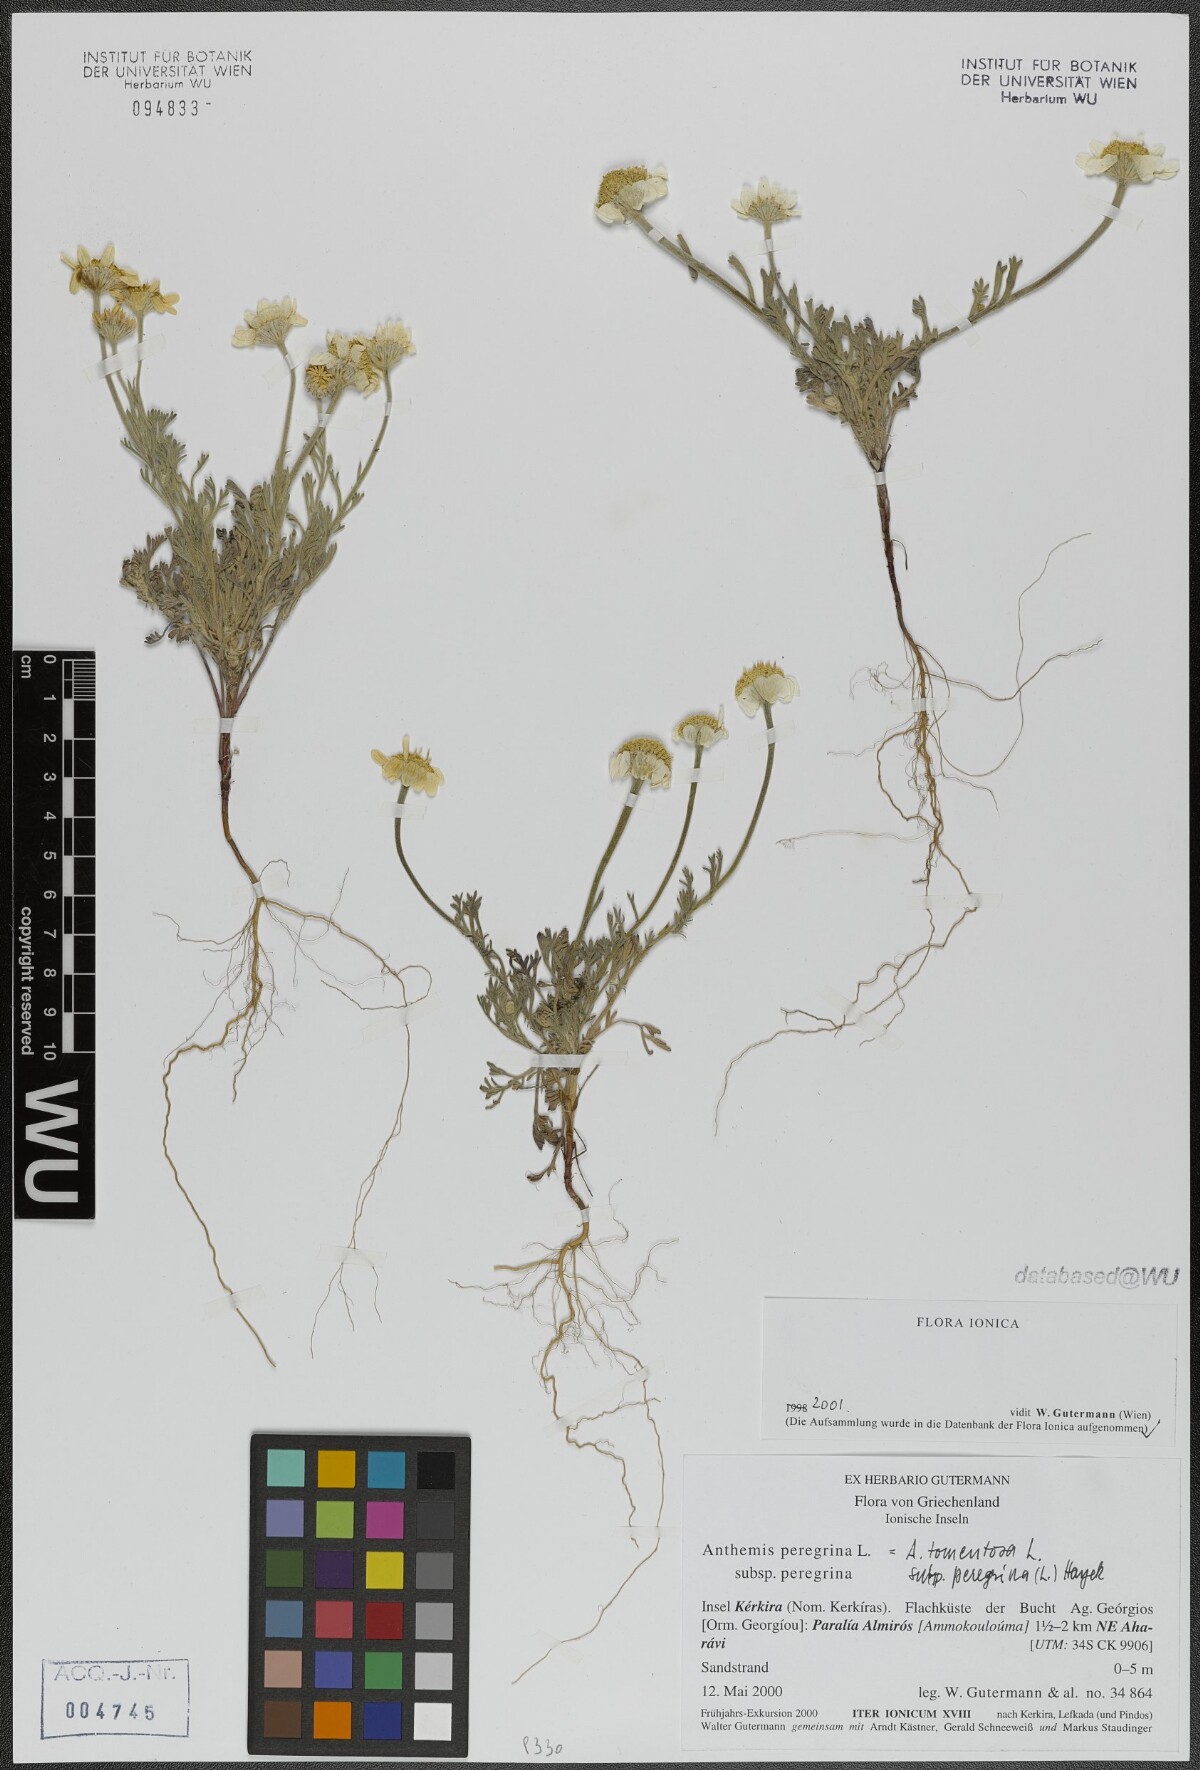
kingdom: Plantae
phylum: Tracheophyta
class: Magnoliopsida
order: Asterales
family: Asteraceae
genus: Anthemis
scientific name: Anthemis tomentosa
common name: Woolly chamomile
